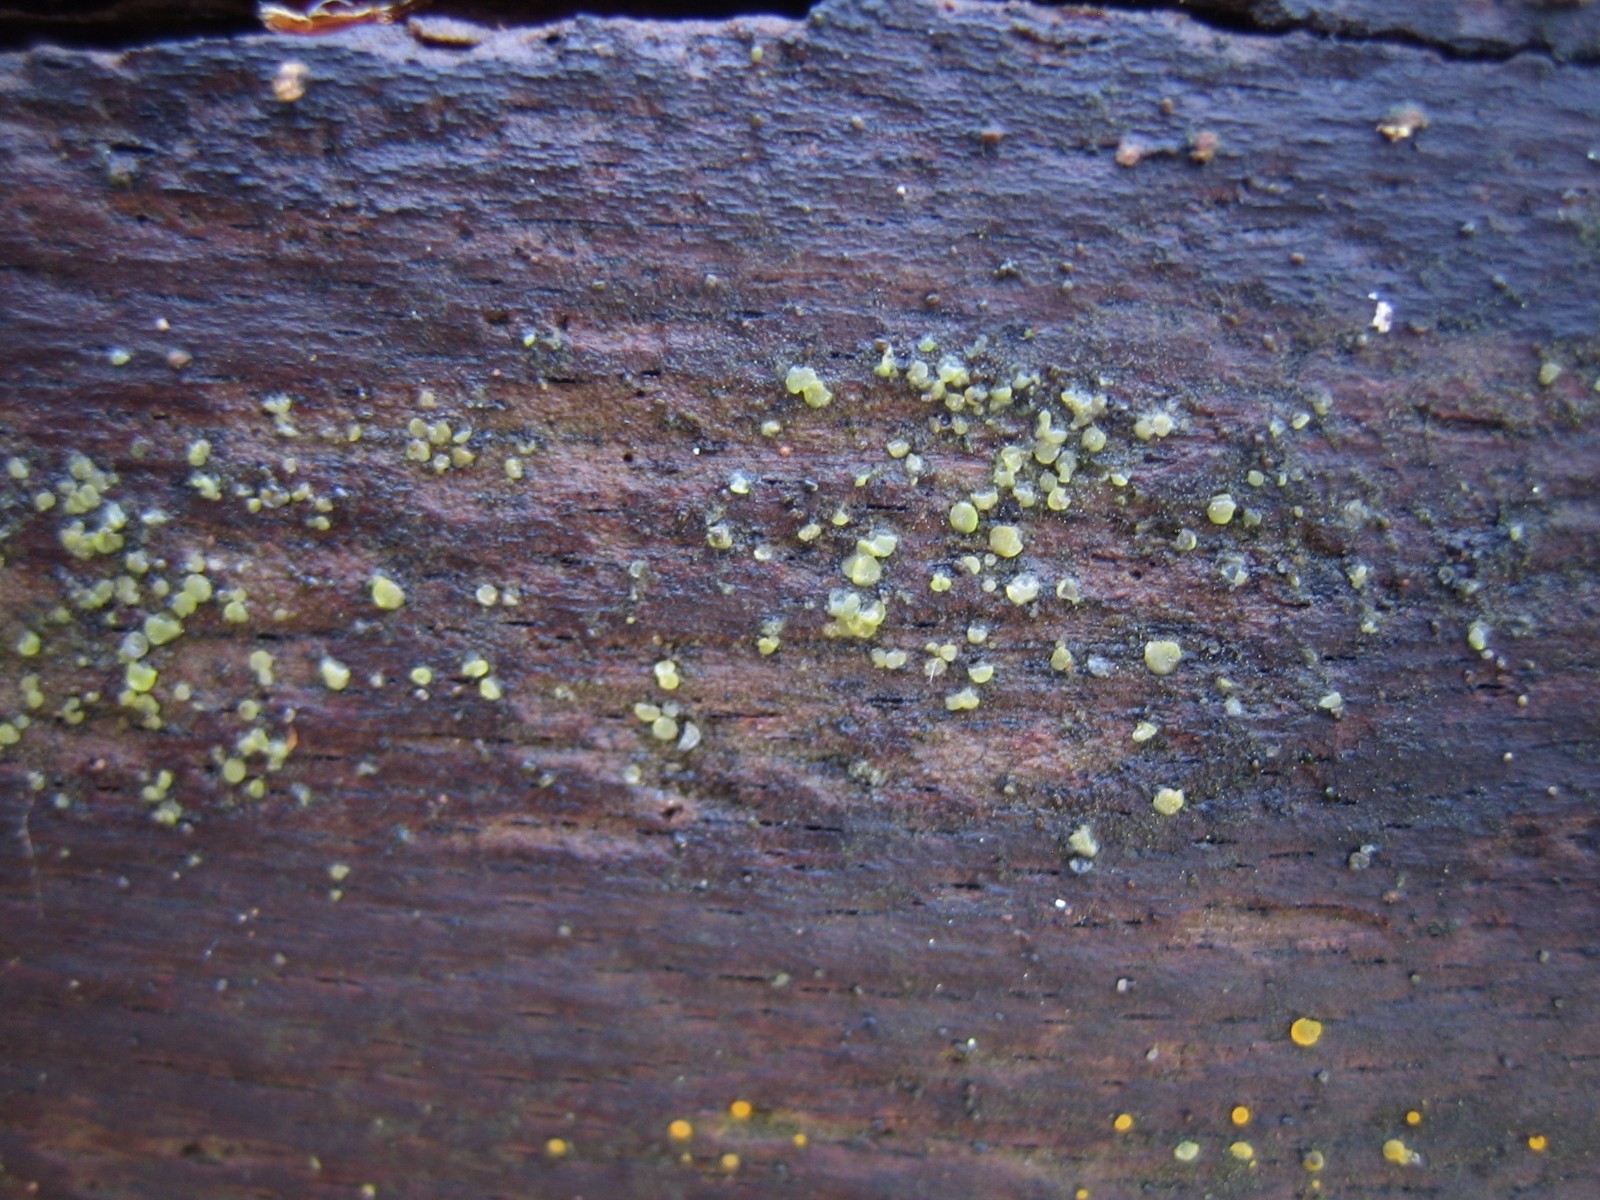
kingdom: Fungi
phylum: Ascomycota
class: Orbiliomycetes
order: Orbiliales
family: Orbiliaceae
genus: Orbilia
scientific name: Orbilia
